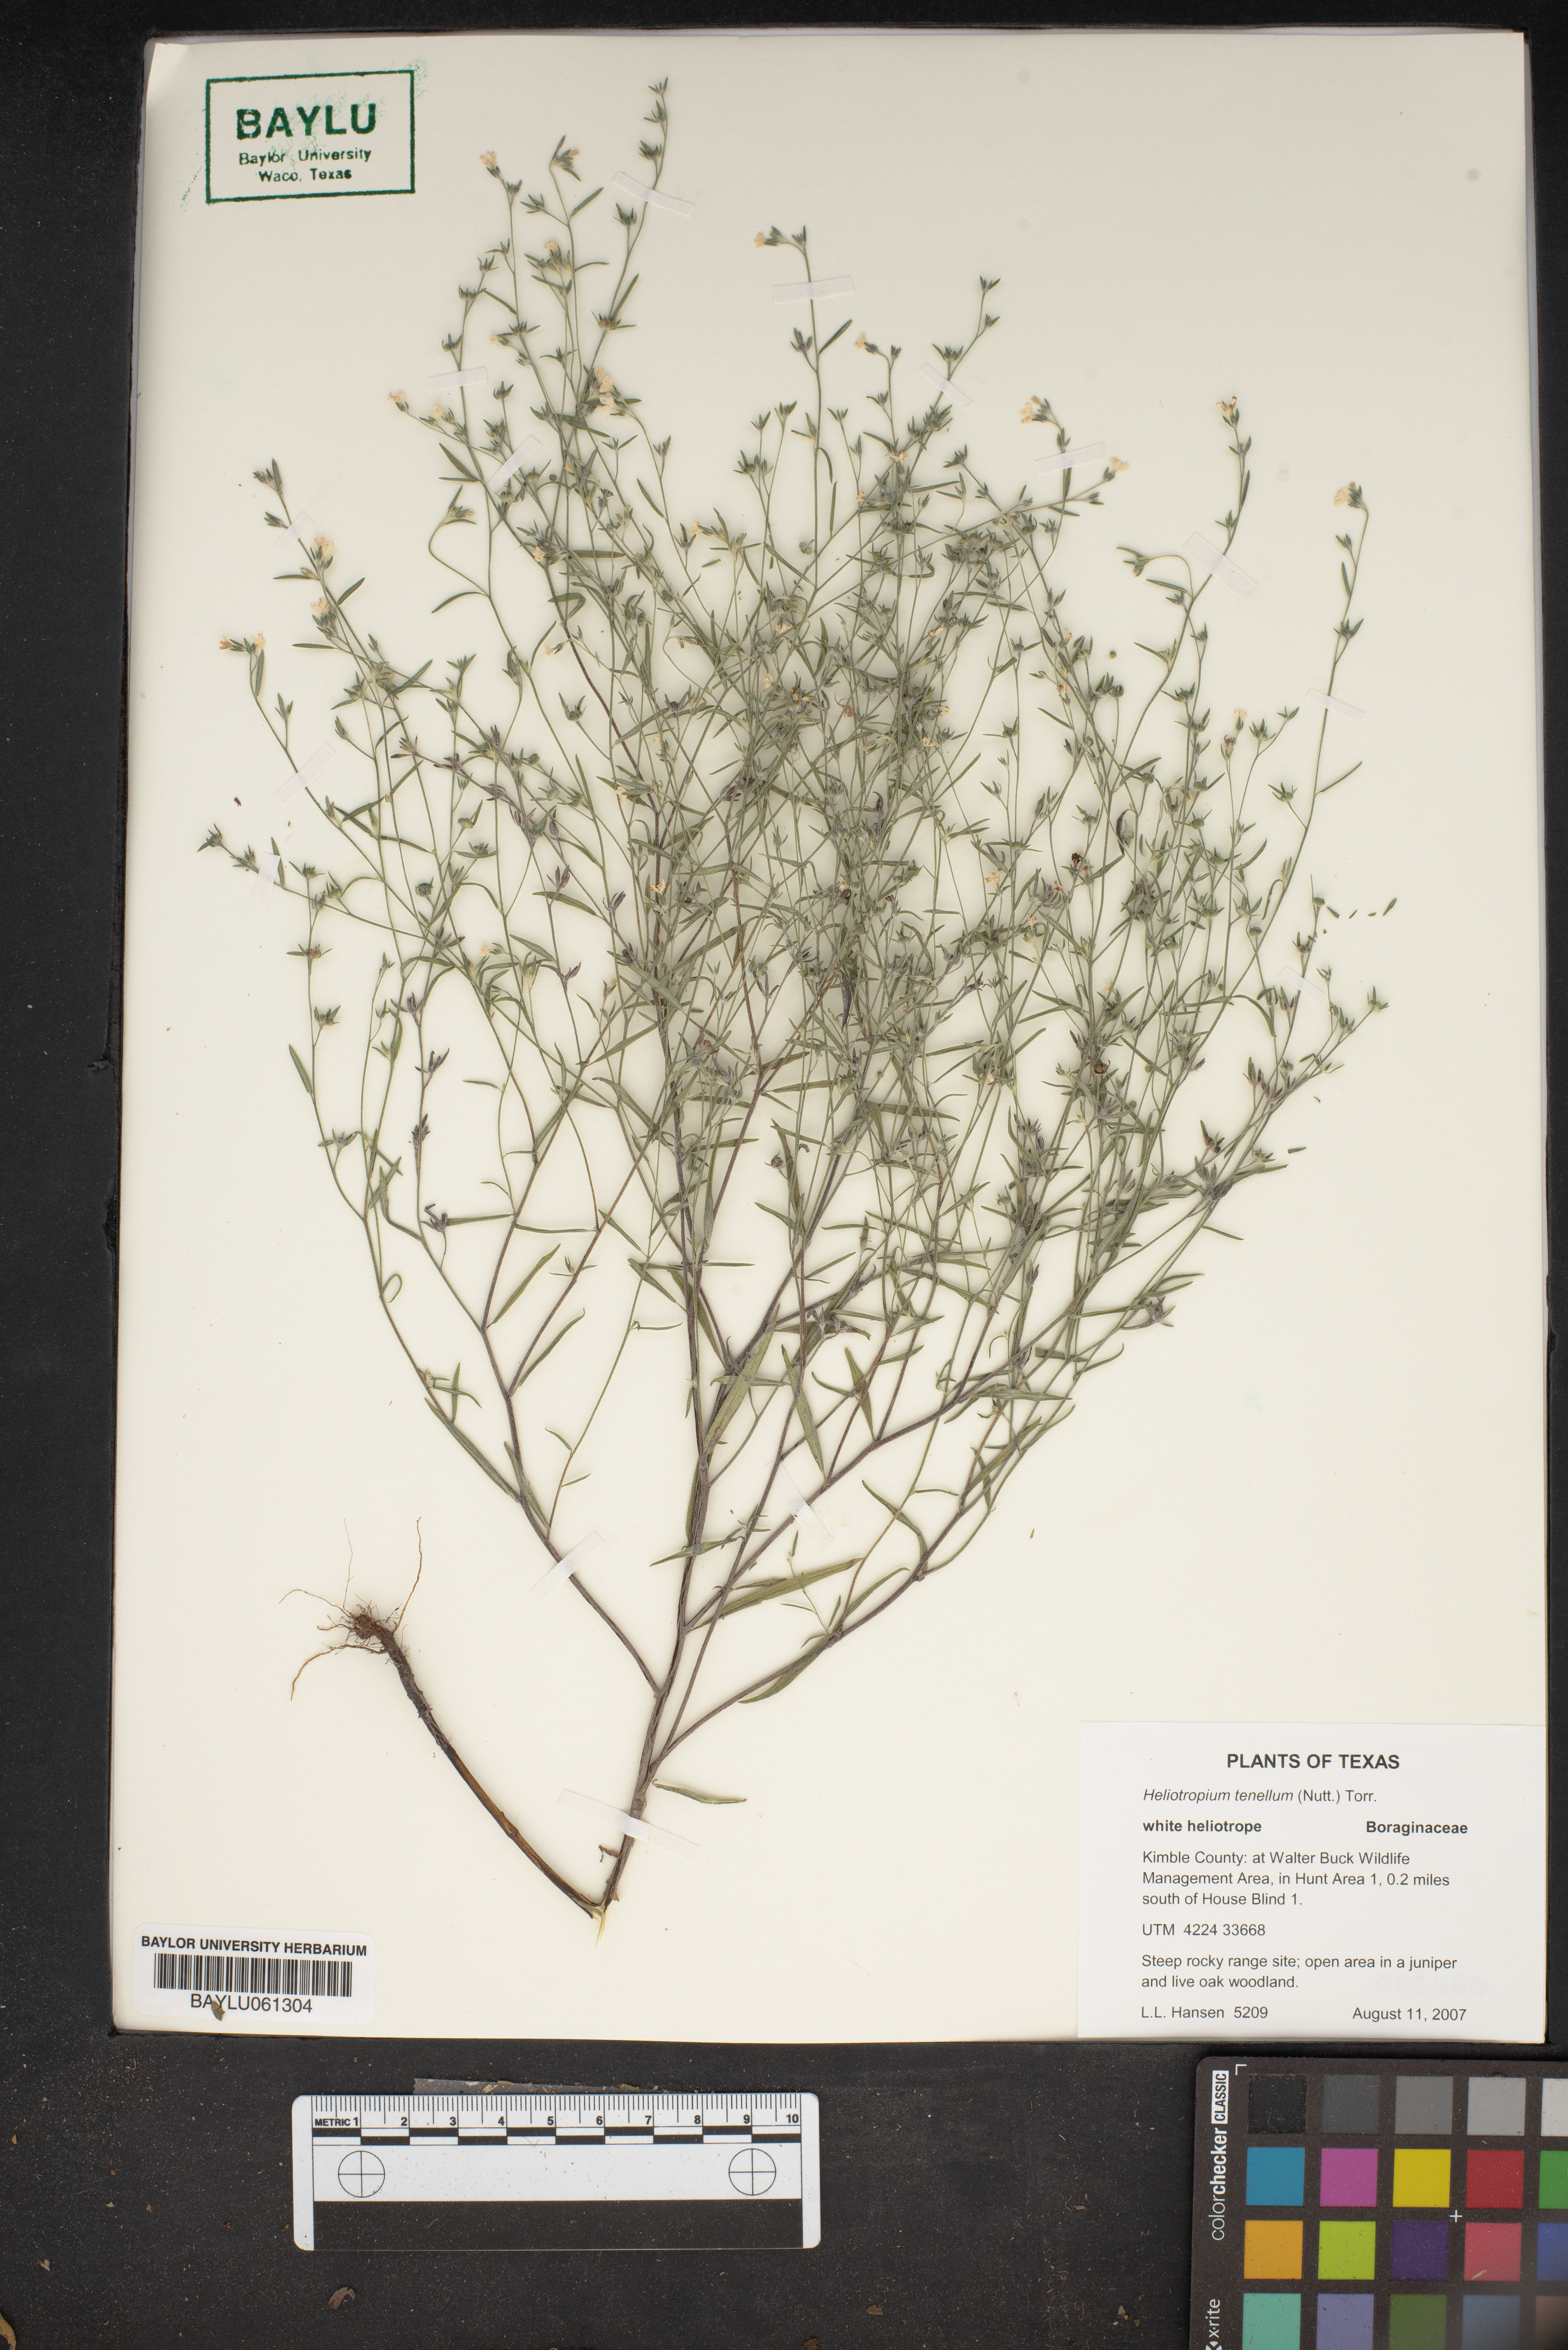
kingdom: Plantae
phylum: Tracheophyta
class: Magnoliopsida
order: Boraginales
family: Heliotropiaceae
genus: Euploca
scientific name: Euploca tenella
